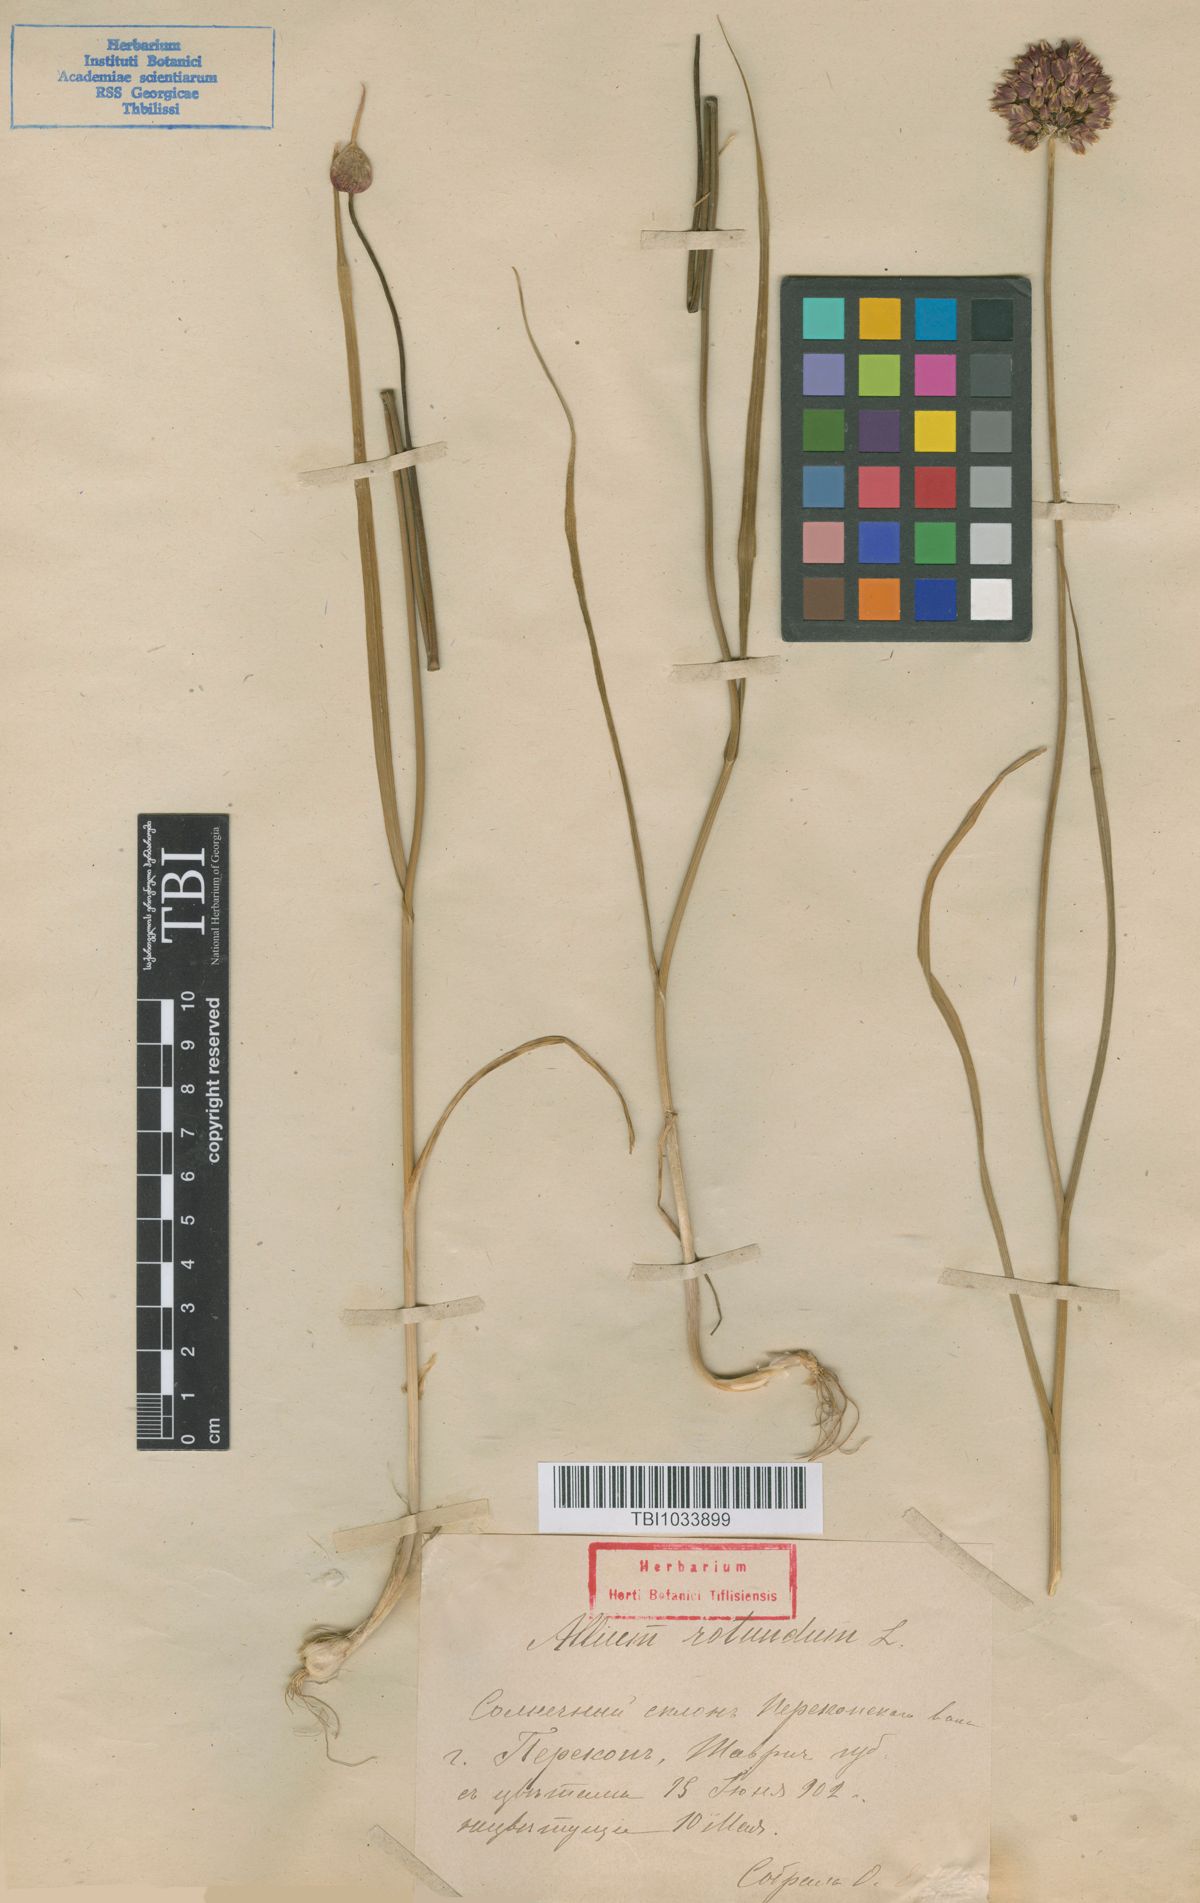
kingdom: Plantae
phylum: Tracheophyta
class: Liliopsida
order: Asparagales
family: Amaryllidaceae
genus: Allium
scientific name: Allium rotundum
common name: Sand leek
